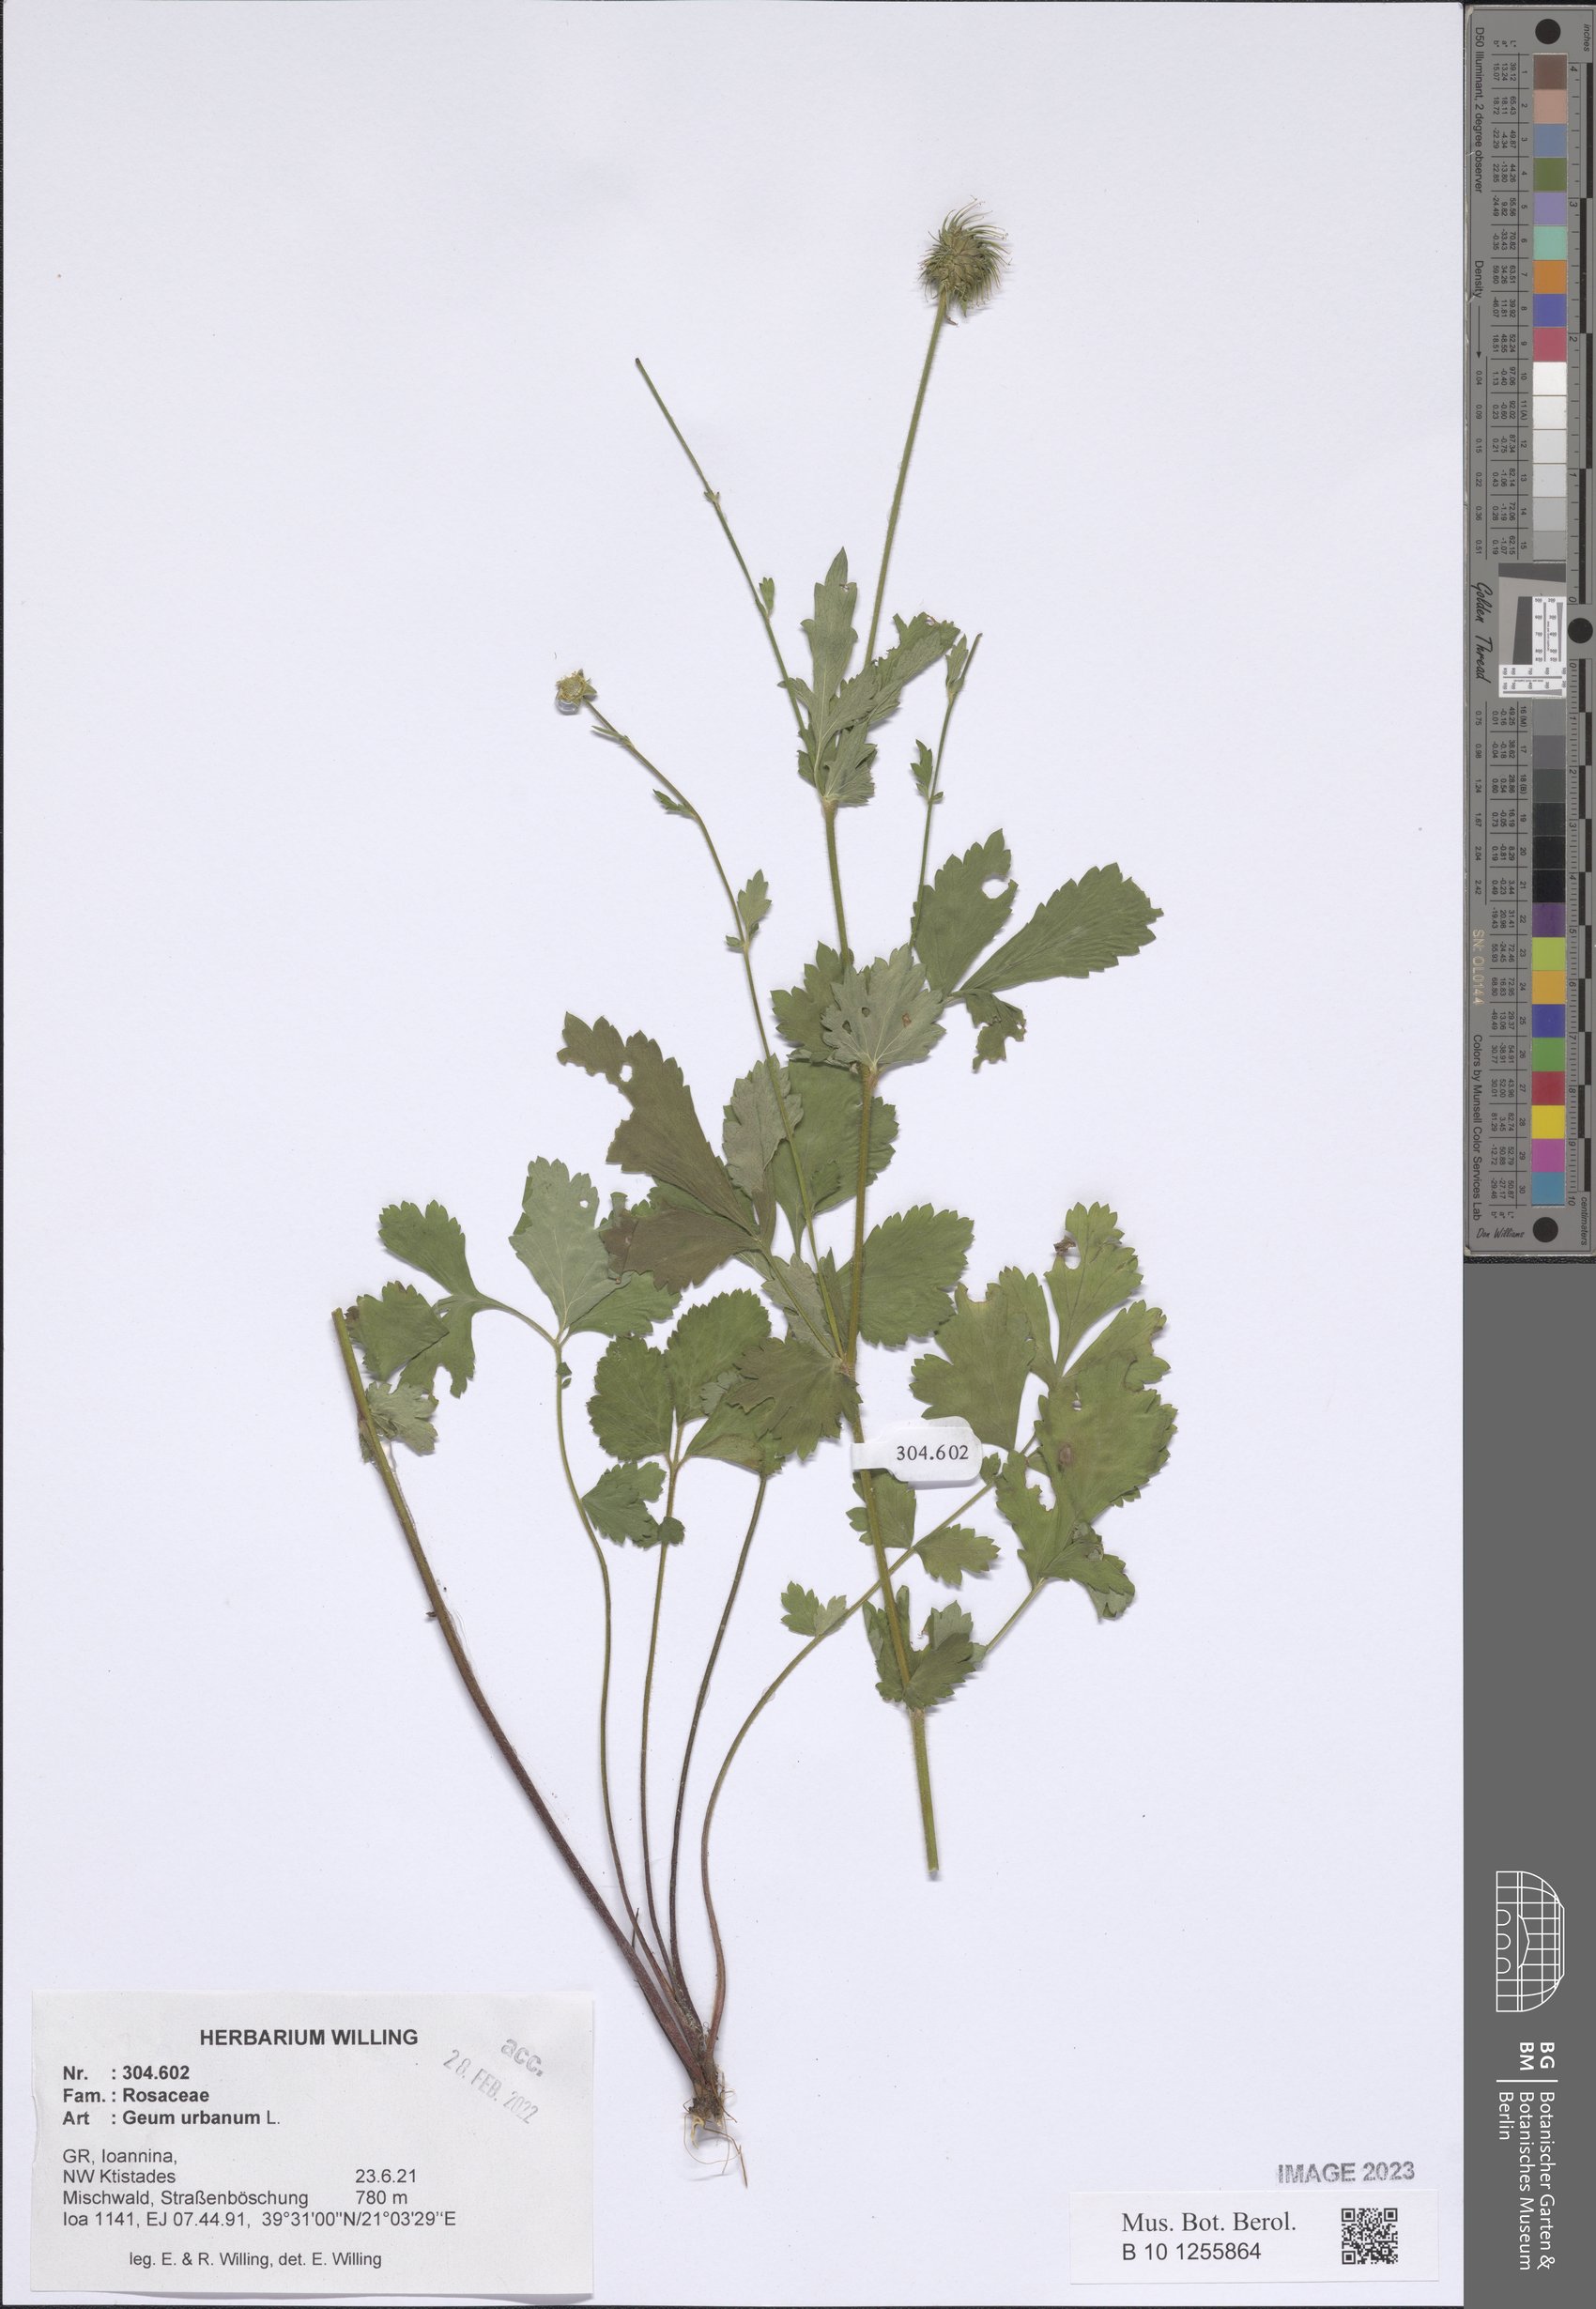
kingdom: Plantae
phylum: Tracheophyta
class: Magnoliopsida
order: Rosales
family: Rosaceae
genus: Geum
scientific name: Geum urbanum
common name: Wood avens
